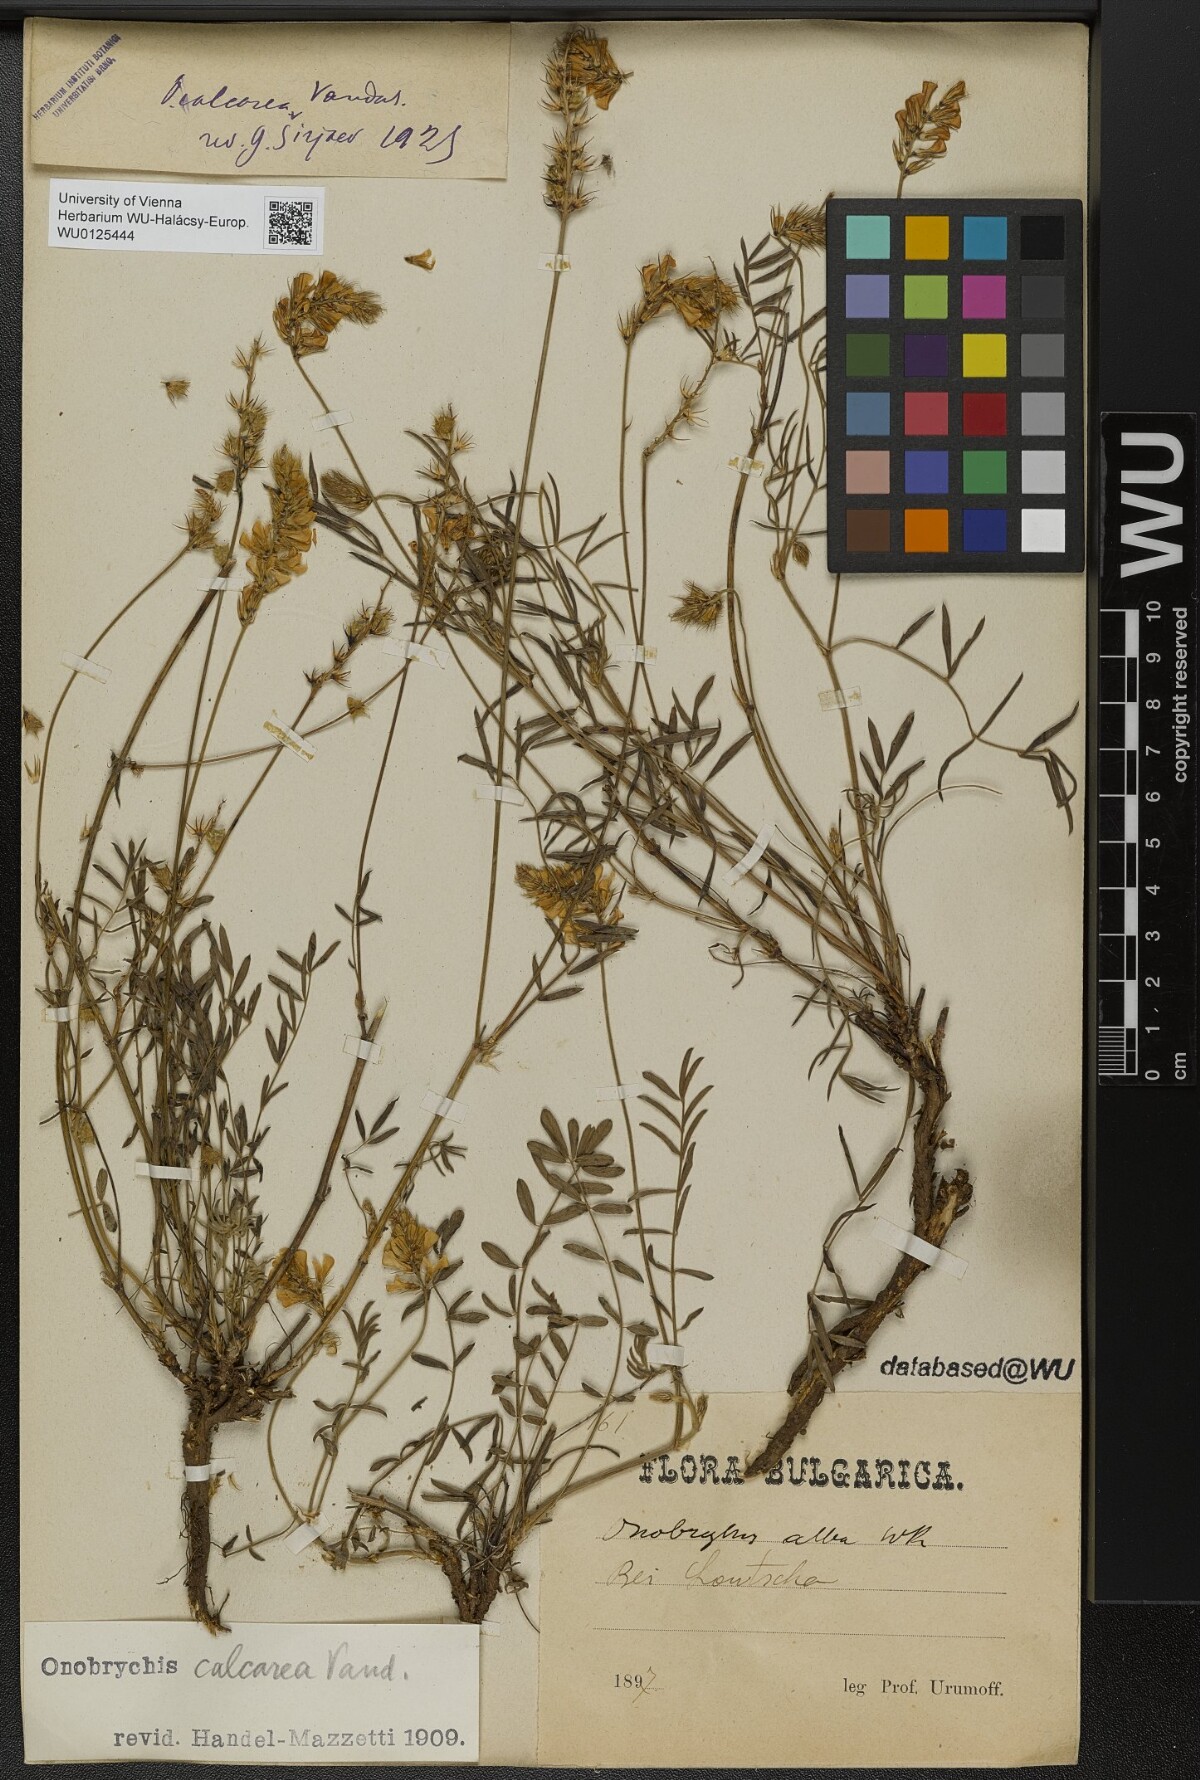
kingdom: Plantae
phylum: Tracheophyta
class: Magnoliopsida
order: Fabales
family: Fabaceae
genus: Onobrychis
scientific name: Onobrychis alba
